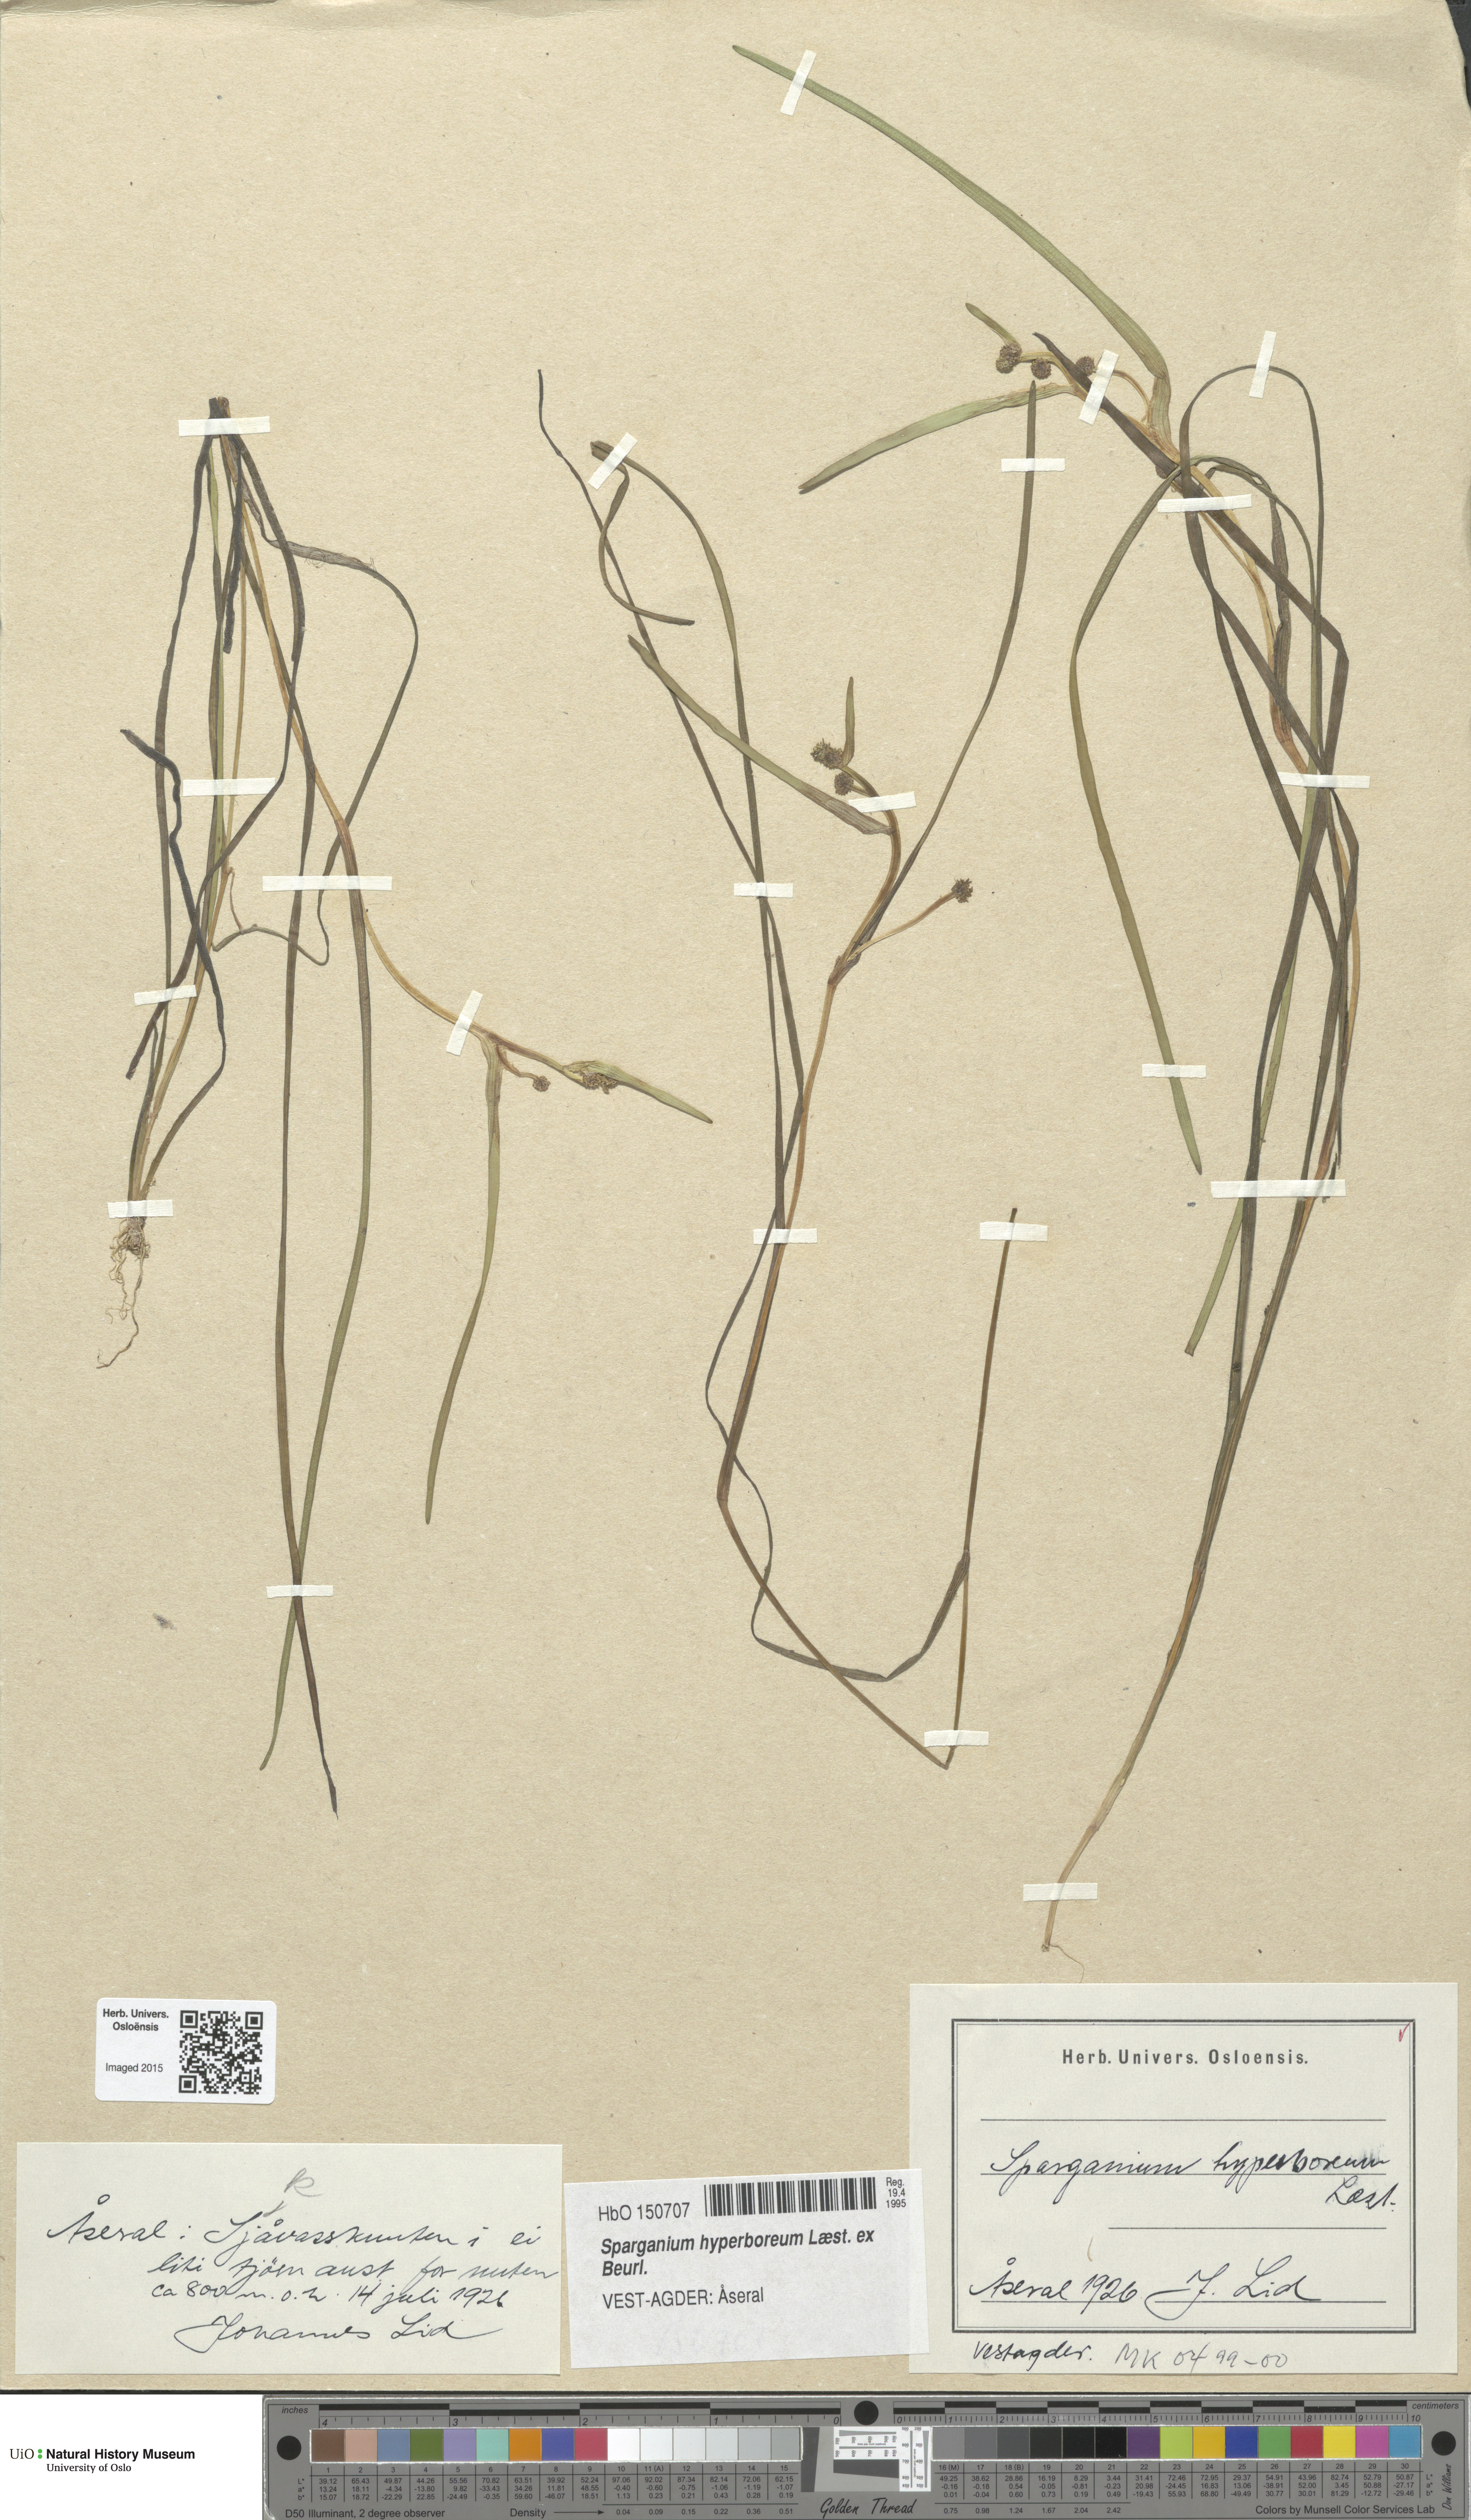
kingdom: Plantae
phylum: Tracheophyta
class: Liliopsida
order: Poales
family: Typhaceae
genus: Sparganium
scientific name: Sparganium hyperboreum
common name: Arctic burreed
